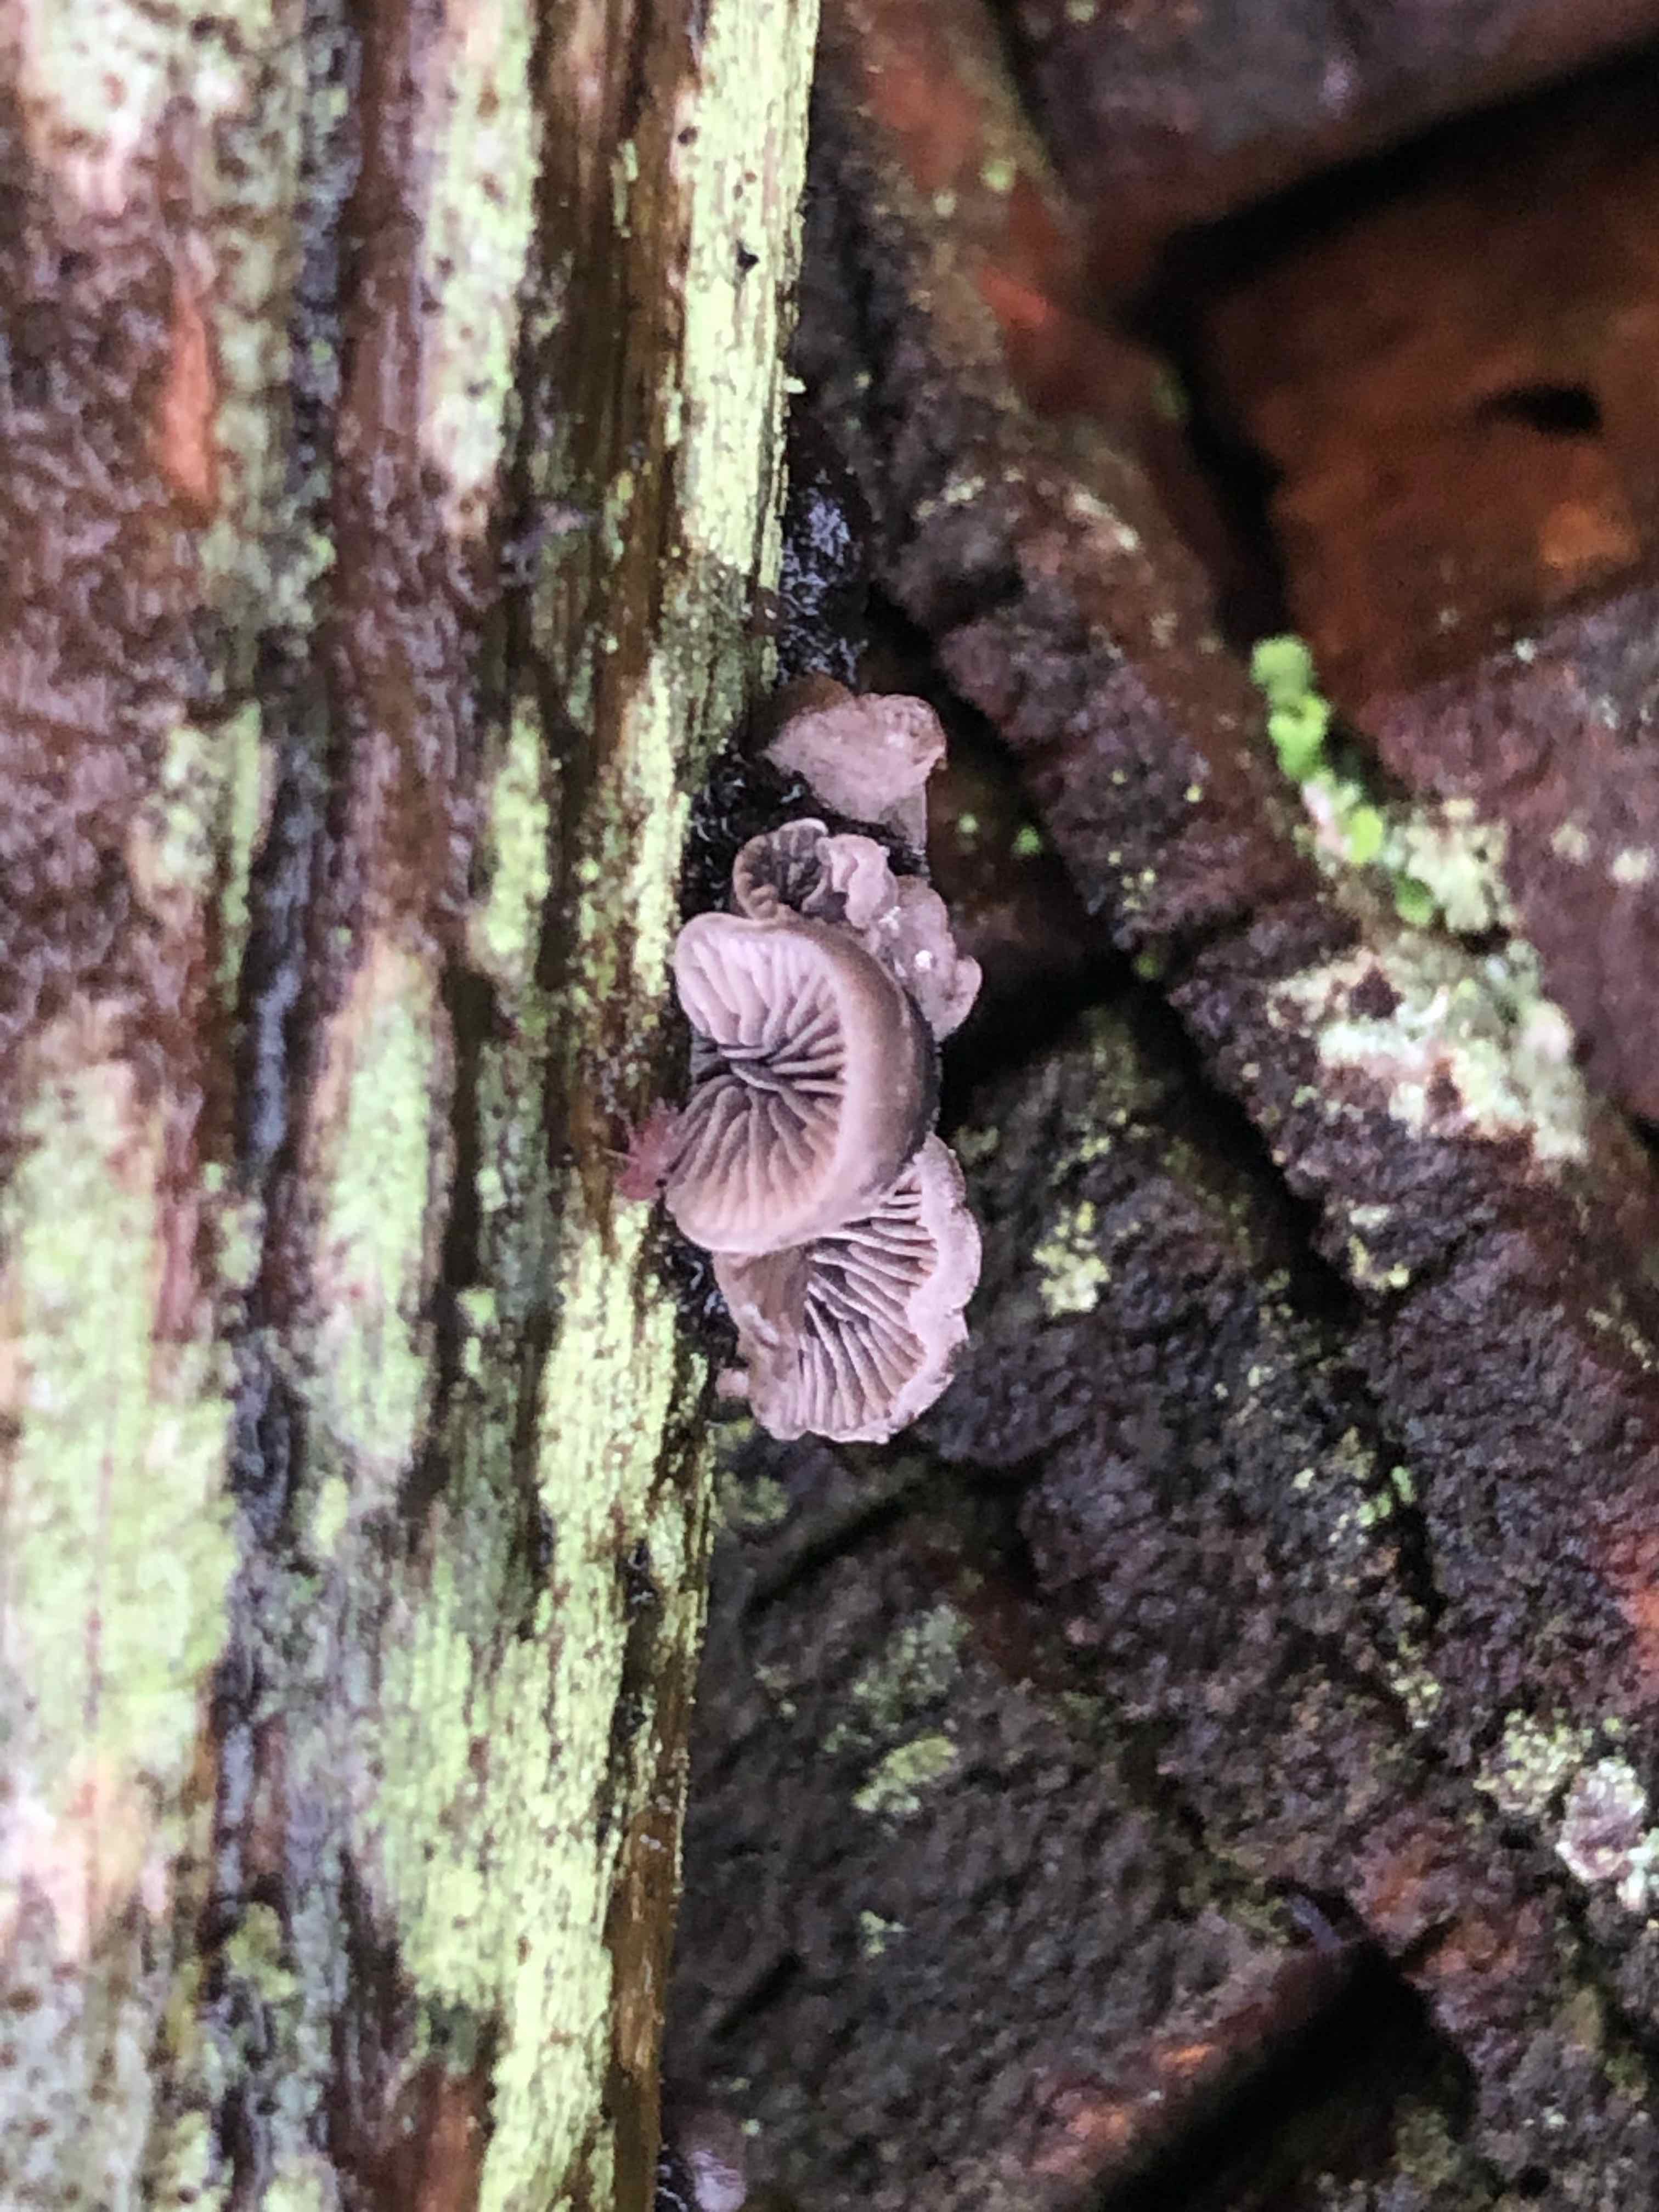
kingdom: Fungi
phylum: Basidiomycota
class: Agaricomycetes
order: Agaricales
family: Pleurotaceae
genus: Resupinatus
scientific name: Resupinatus trichotis
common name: mørkfiltet barkhat
